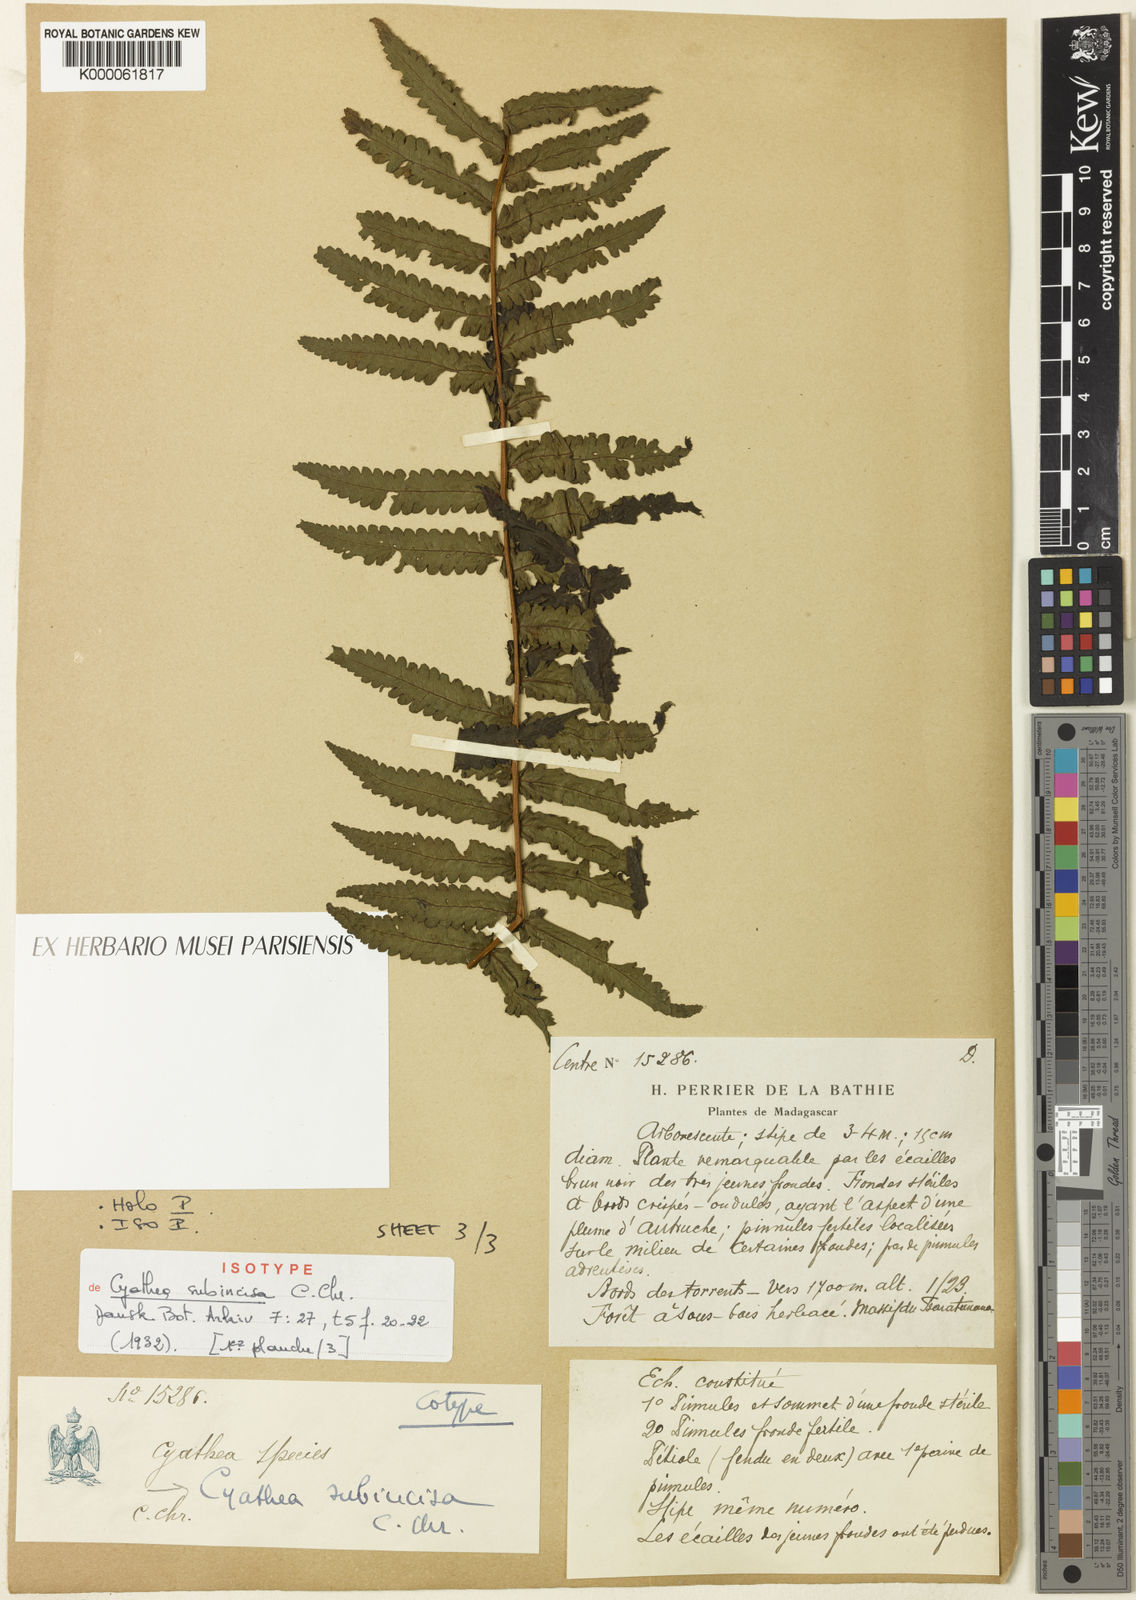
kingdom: Plantae
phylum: Tracheophyta
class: Polypodiopsida
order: Cyatheales
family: Cyatheaceae
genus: Alsophila
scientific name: Alsophila tsaratananensis
